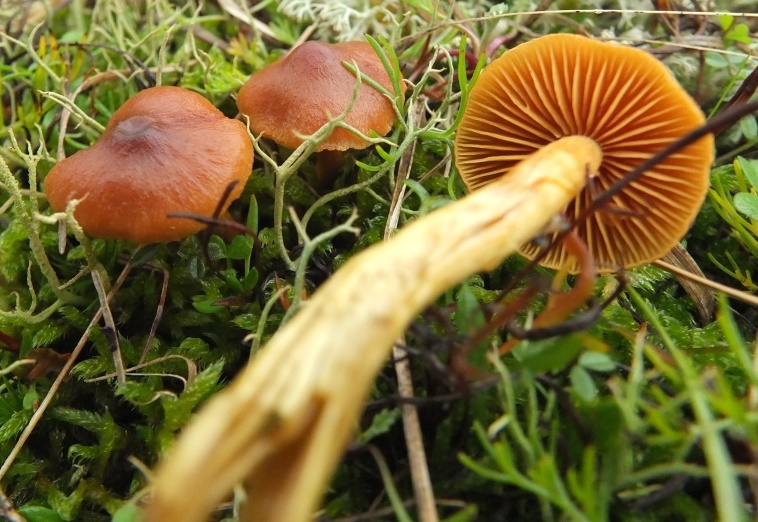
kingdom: Fungi
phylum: Basidiomycota
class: Agaricomycetes
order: Agaricales
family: Cortinariaceae
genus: Cortinarius
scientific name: Cortinarius pratensis
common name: hede-slørhat
